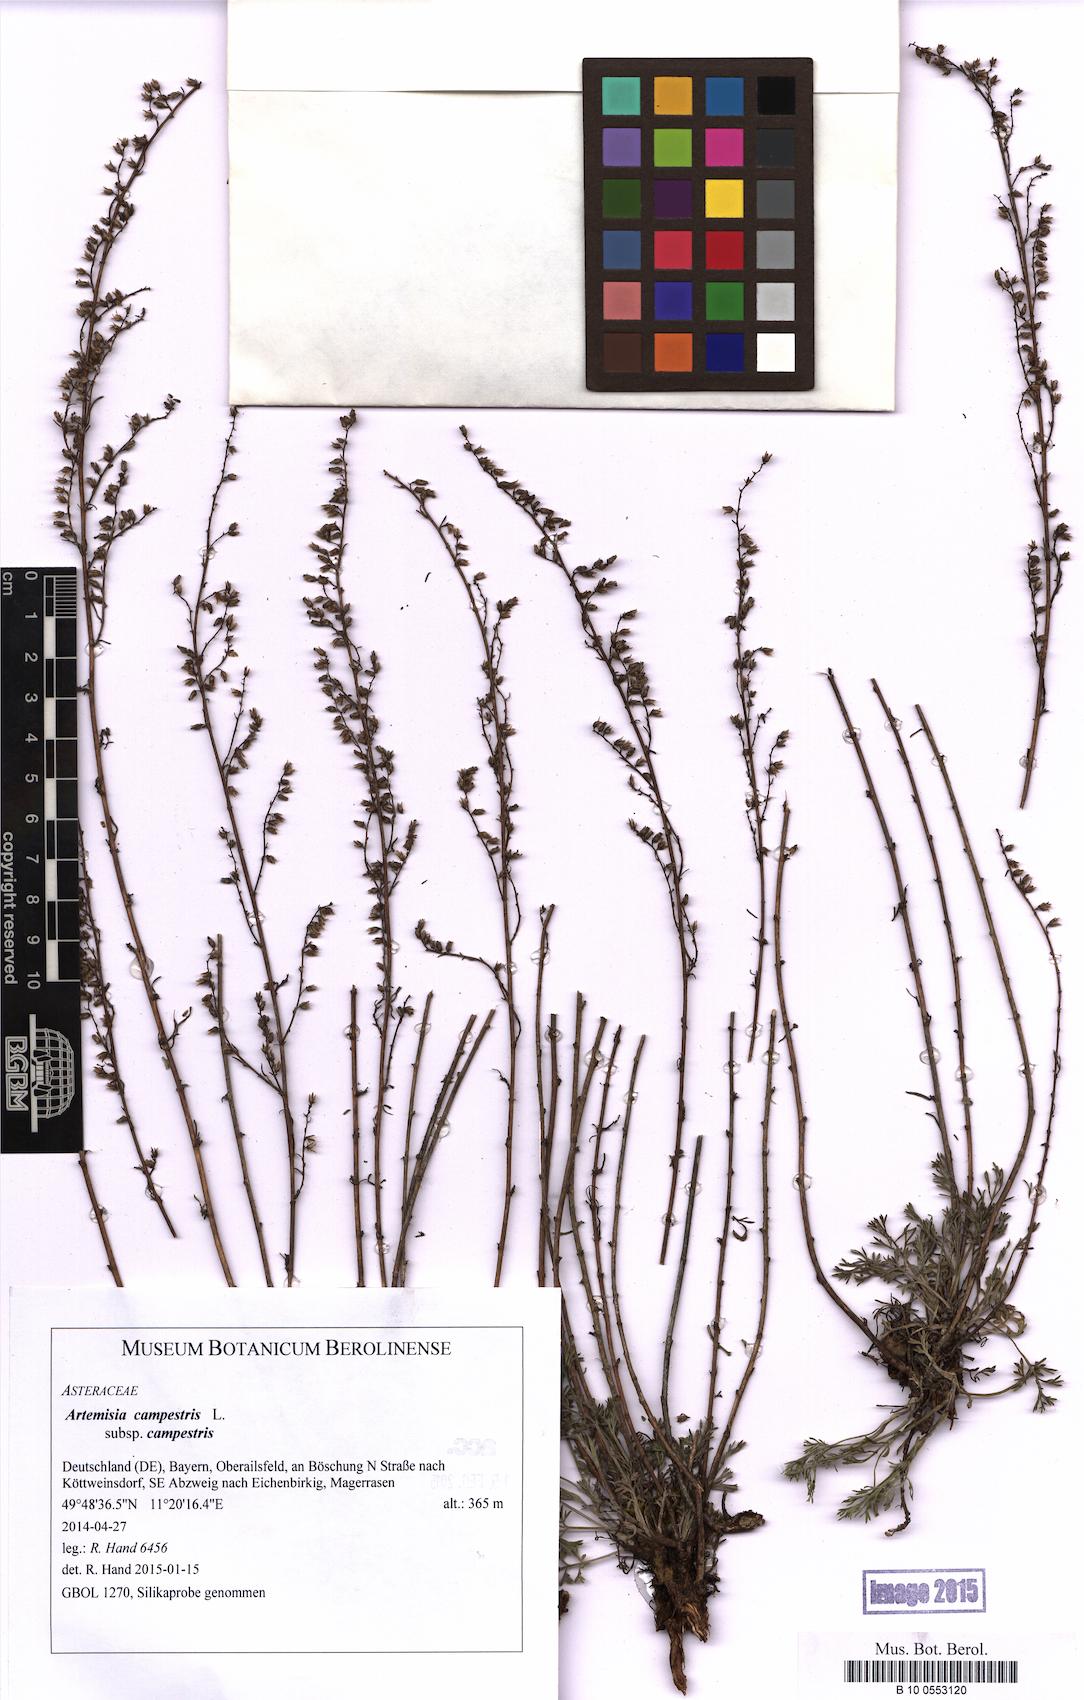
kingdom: Plantae
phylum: Tracheophyta
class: Magnoliopsida
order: Asterales
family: Asteraceae
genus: Artemisia
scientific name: Artemisia campestris
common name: Field wormwood
